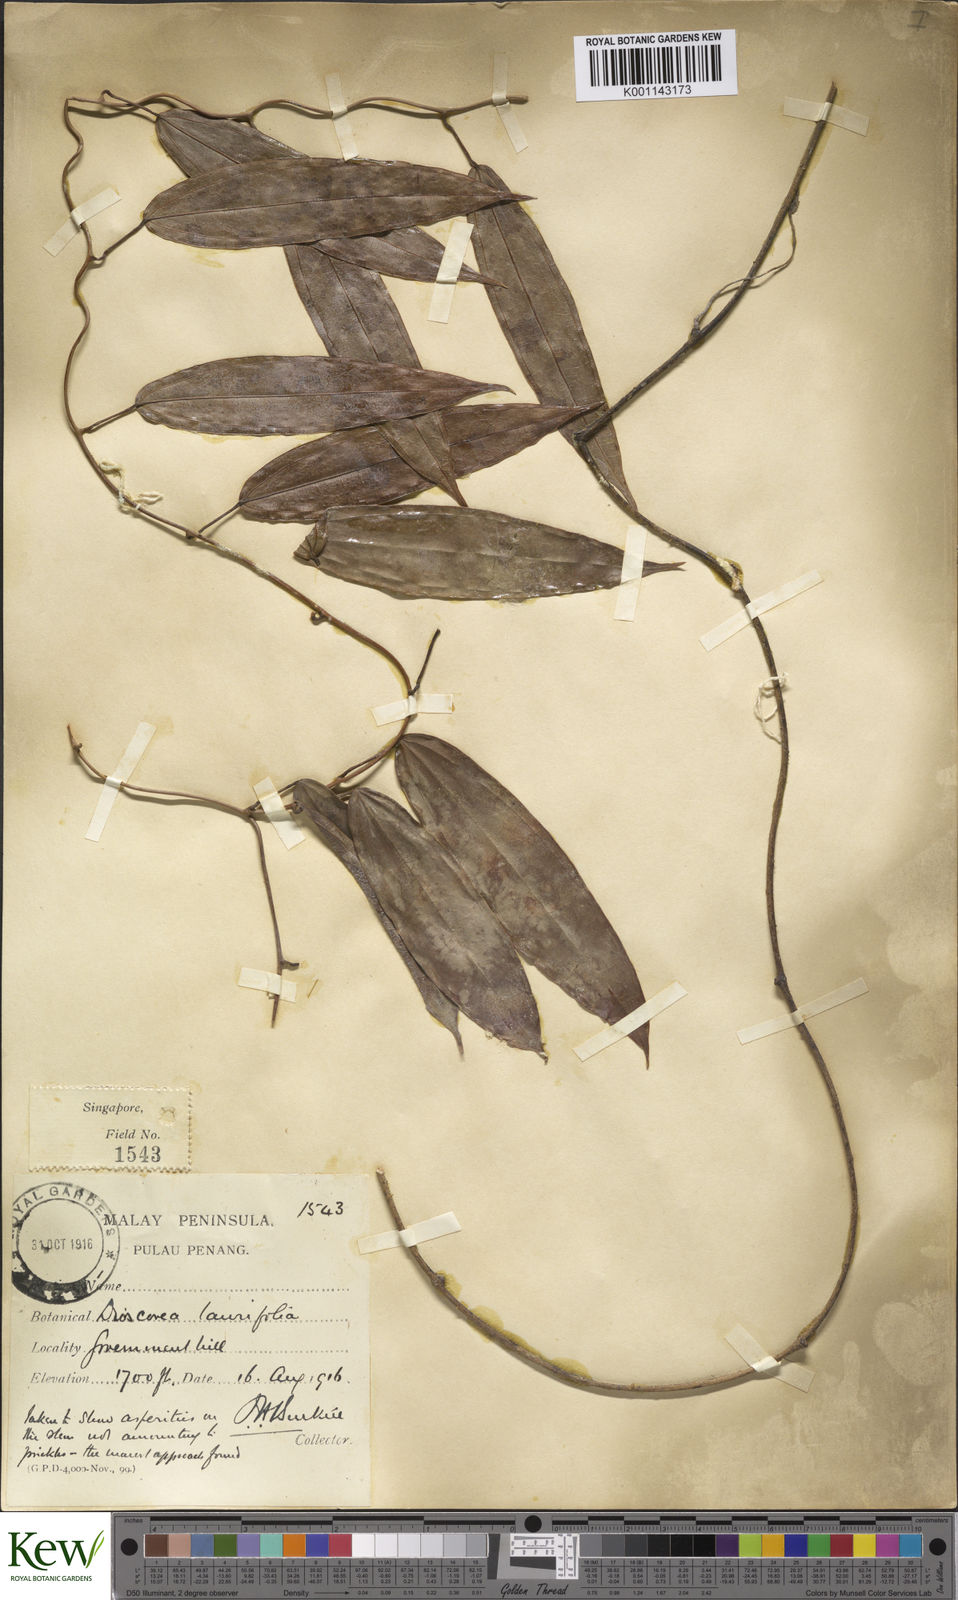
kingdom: Plantae
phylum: Tracheophyta
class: Liliopsida
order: Dioscoreales
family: Dioscoreaceae
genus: Dioscorea
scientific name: Dioscorea laurifolia
